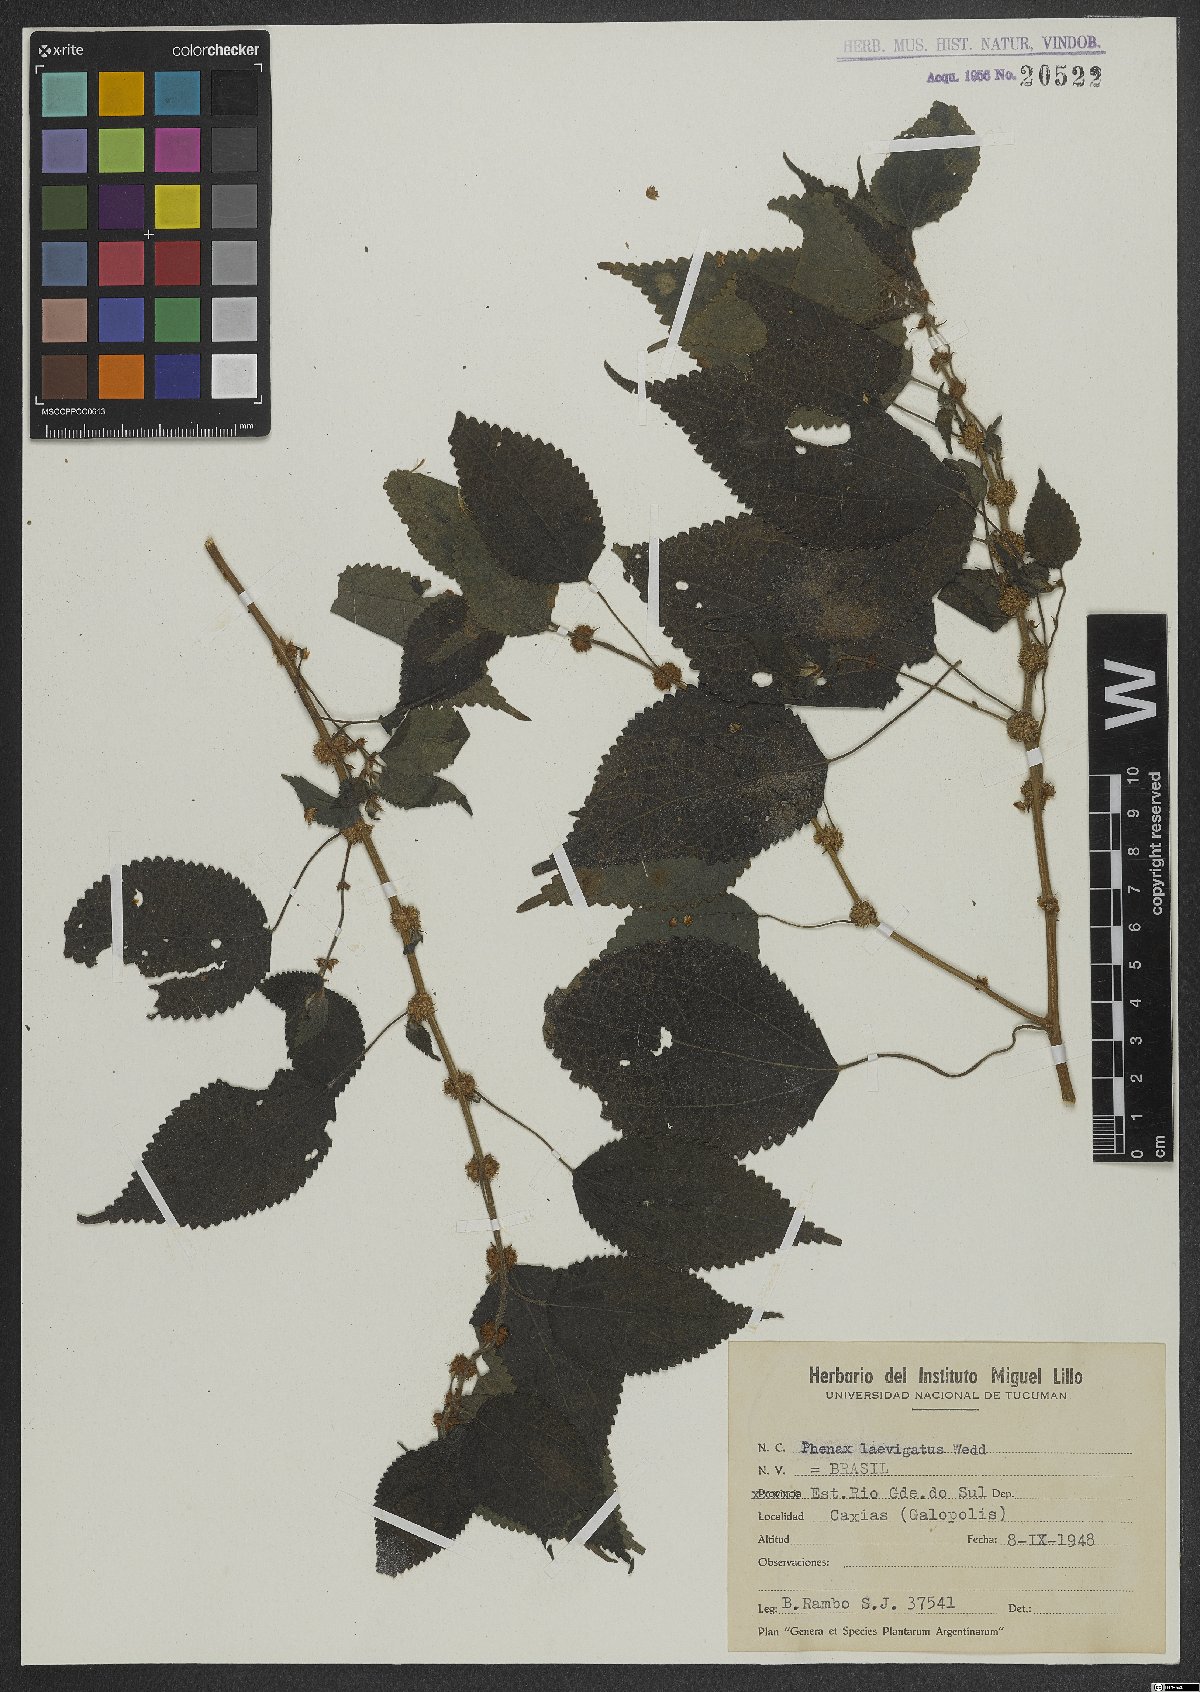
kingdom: Plantae
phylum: Tracheophyta
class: Magnoliopsida
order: Rosales
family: Urticaceae
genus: Phenax
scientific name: Phenax laevigatus
